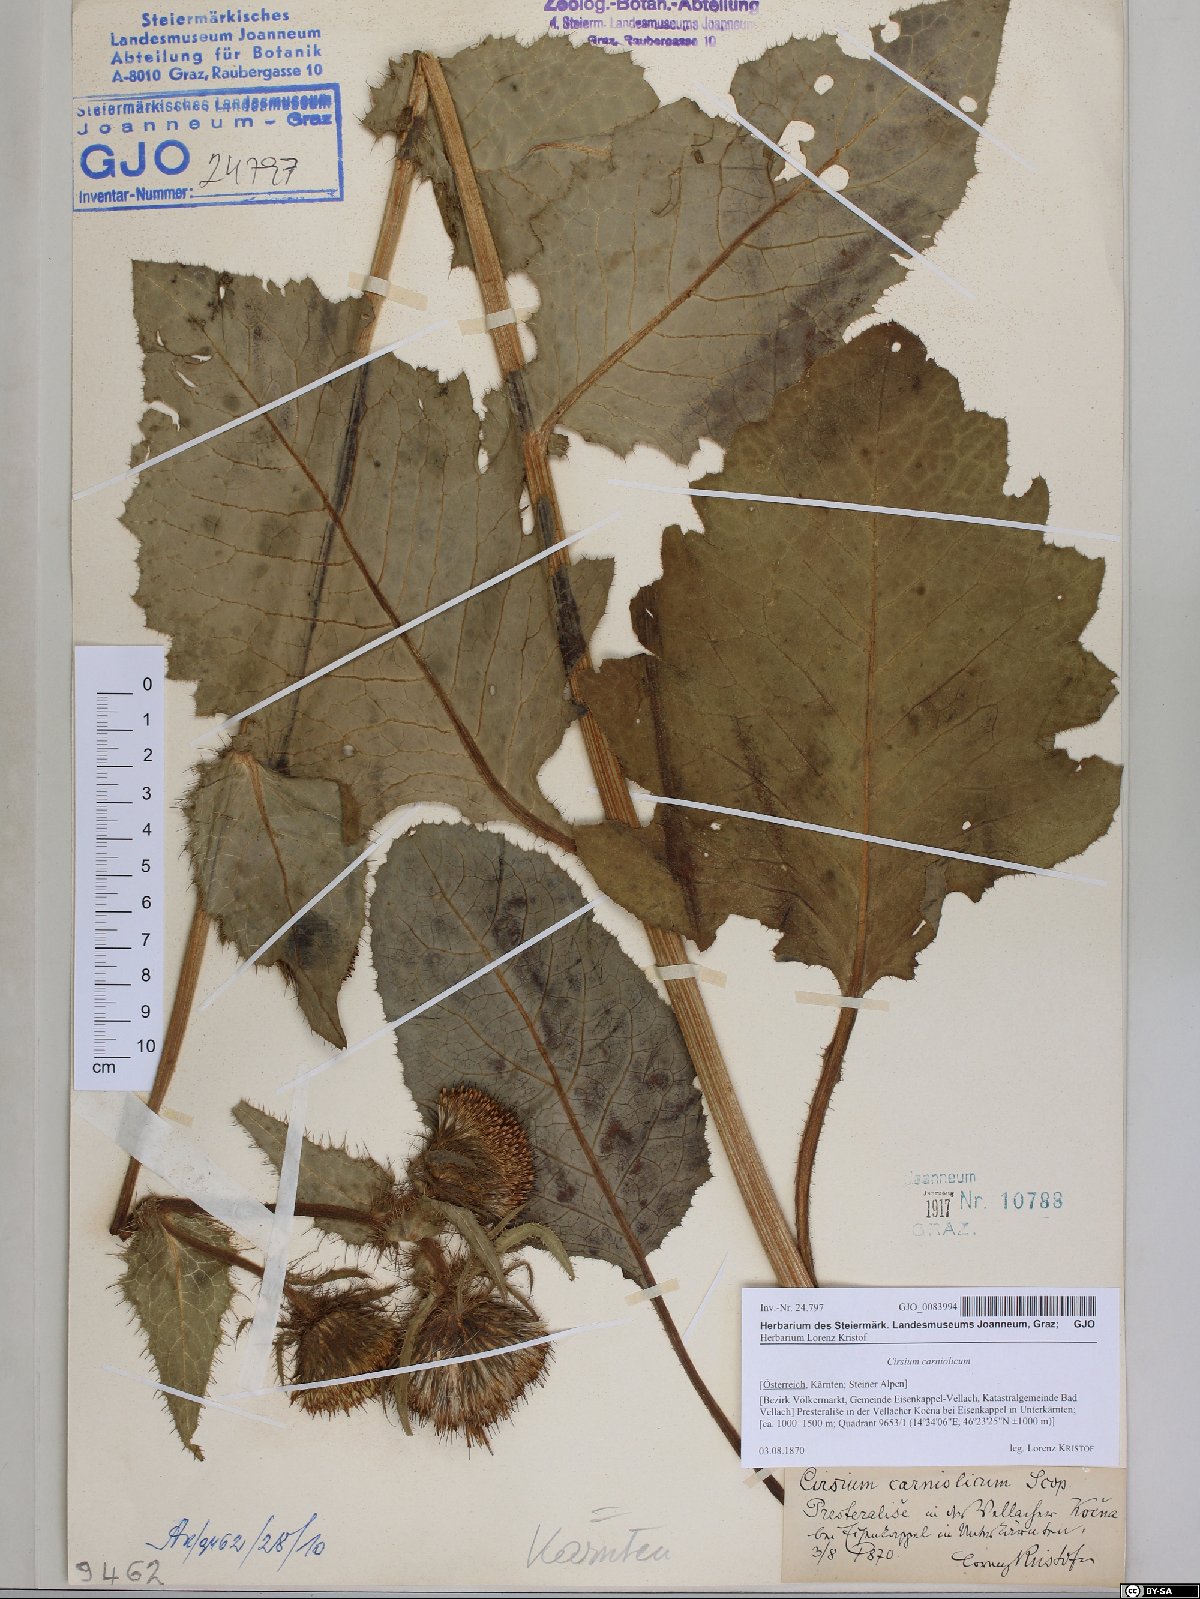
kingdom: Plantae
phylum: Tracheophyta
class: Magnoliopsida
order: Asterales
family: Asteraceae
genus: Cirsium
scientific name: Cirsium carniolicum
